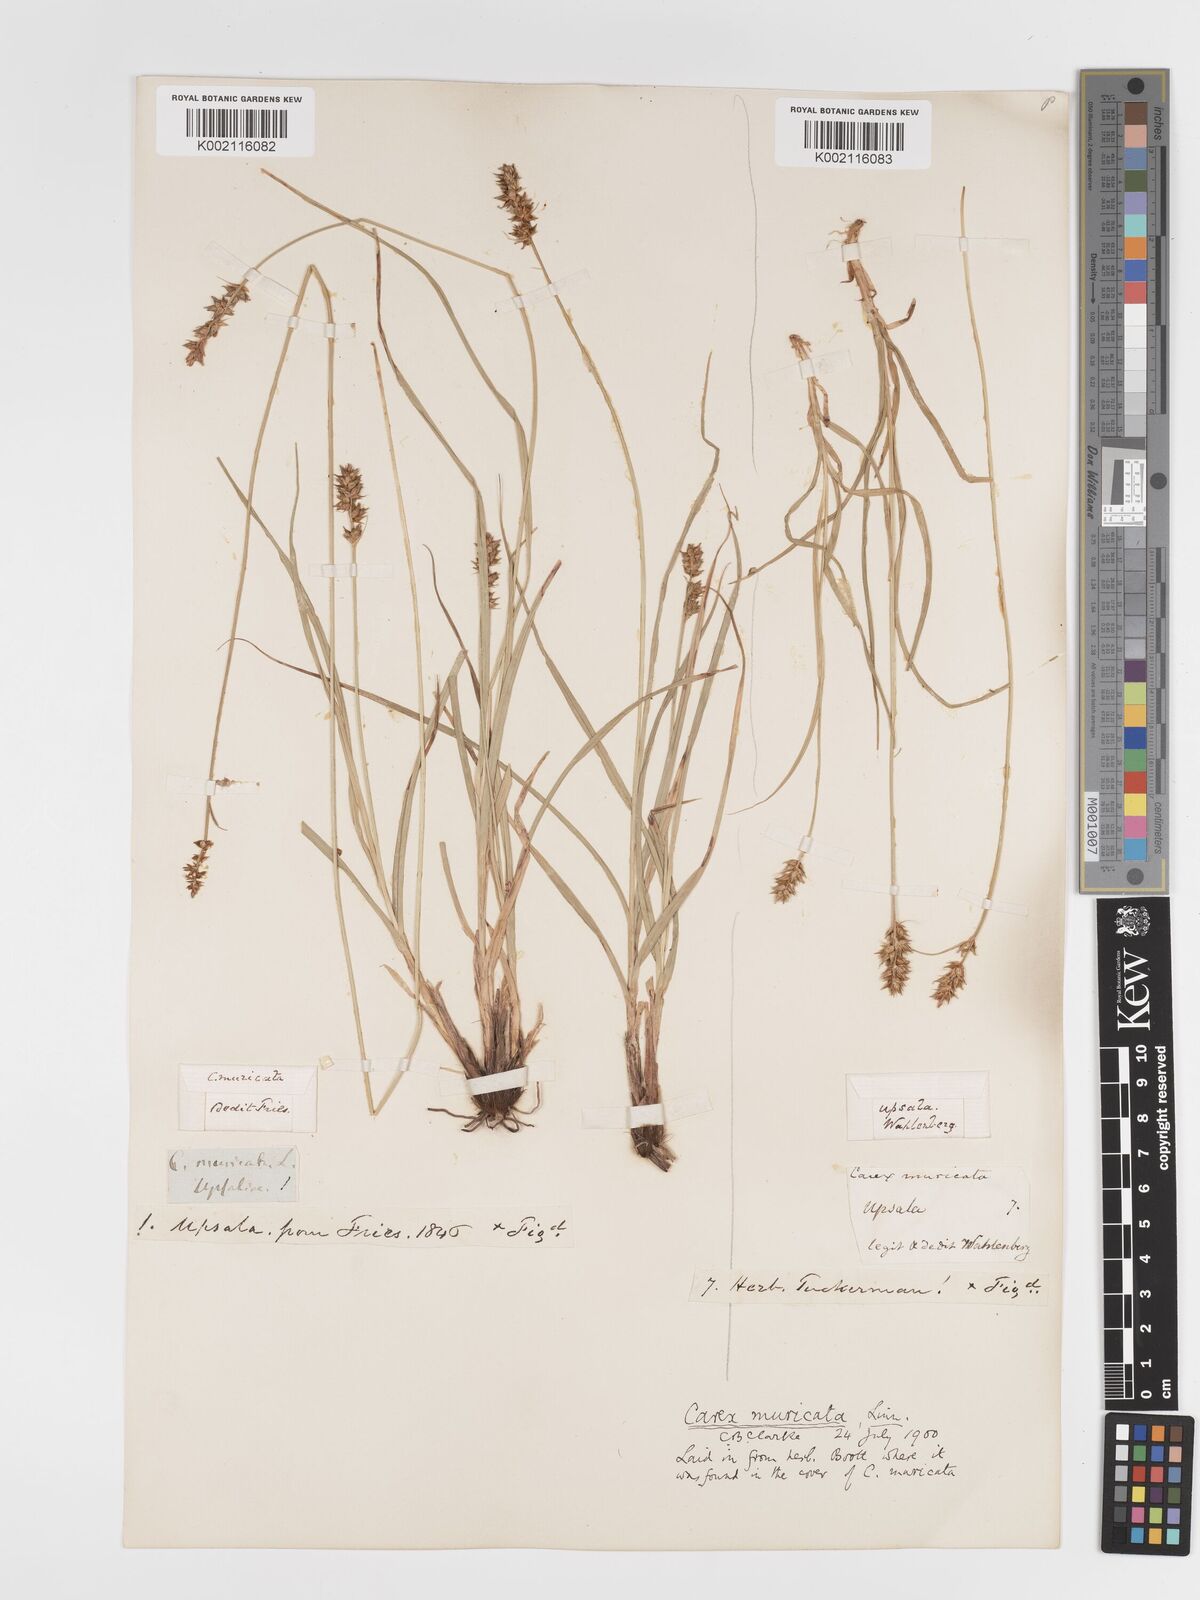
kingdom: Plantae
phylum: Tracheophyta
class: Liliopsida
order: Poales
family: Cyperaceae
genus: Carex
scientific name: Carex spicata
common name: Spiked sedge
